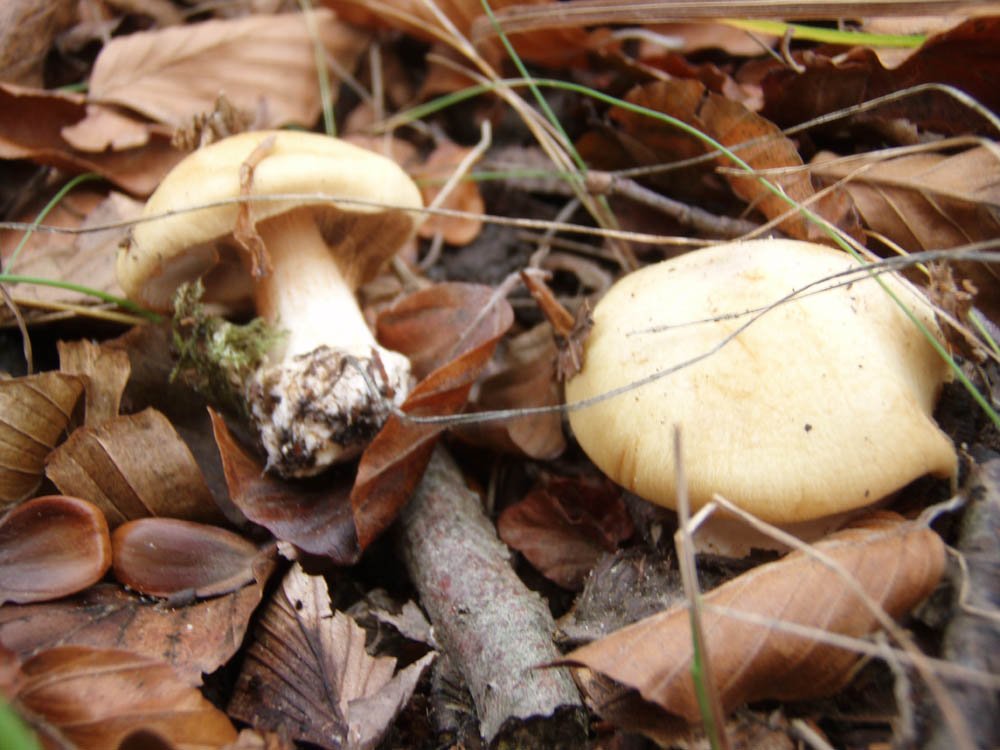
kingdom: Fungi
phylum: Basidiomycota
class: Agaricomycetes
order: Agaricales
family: Cortinariaceae
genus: Cortinarius
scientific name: Cortinarius caesiostramineus
